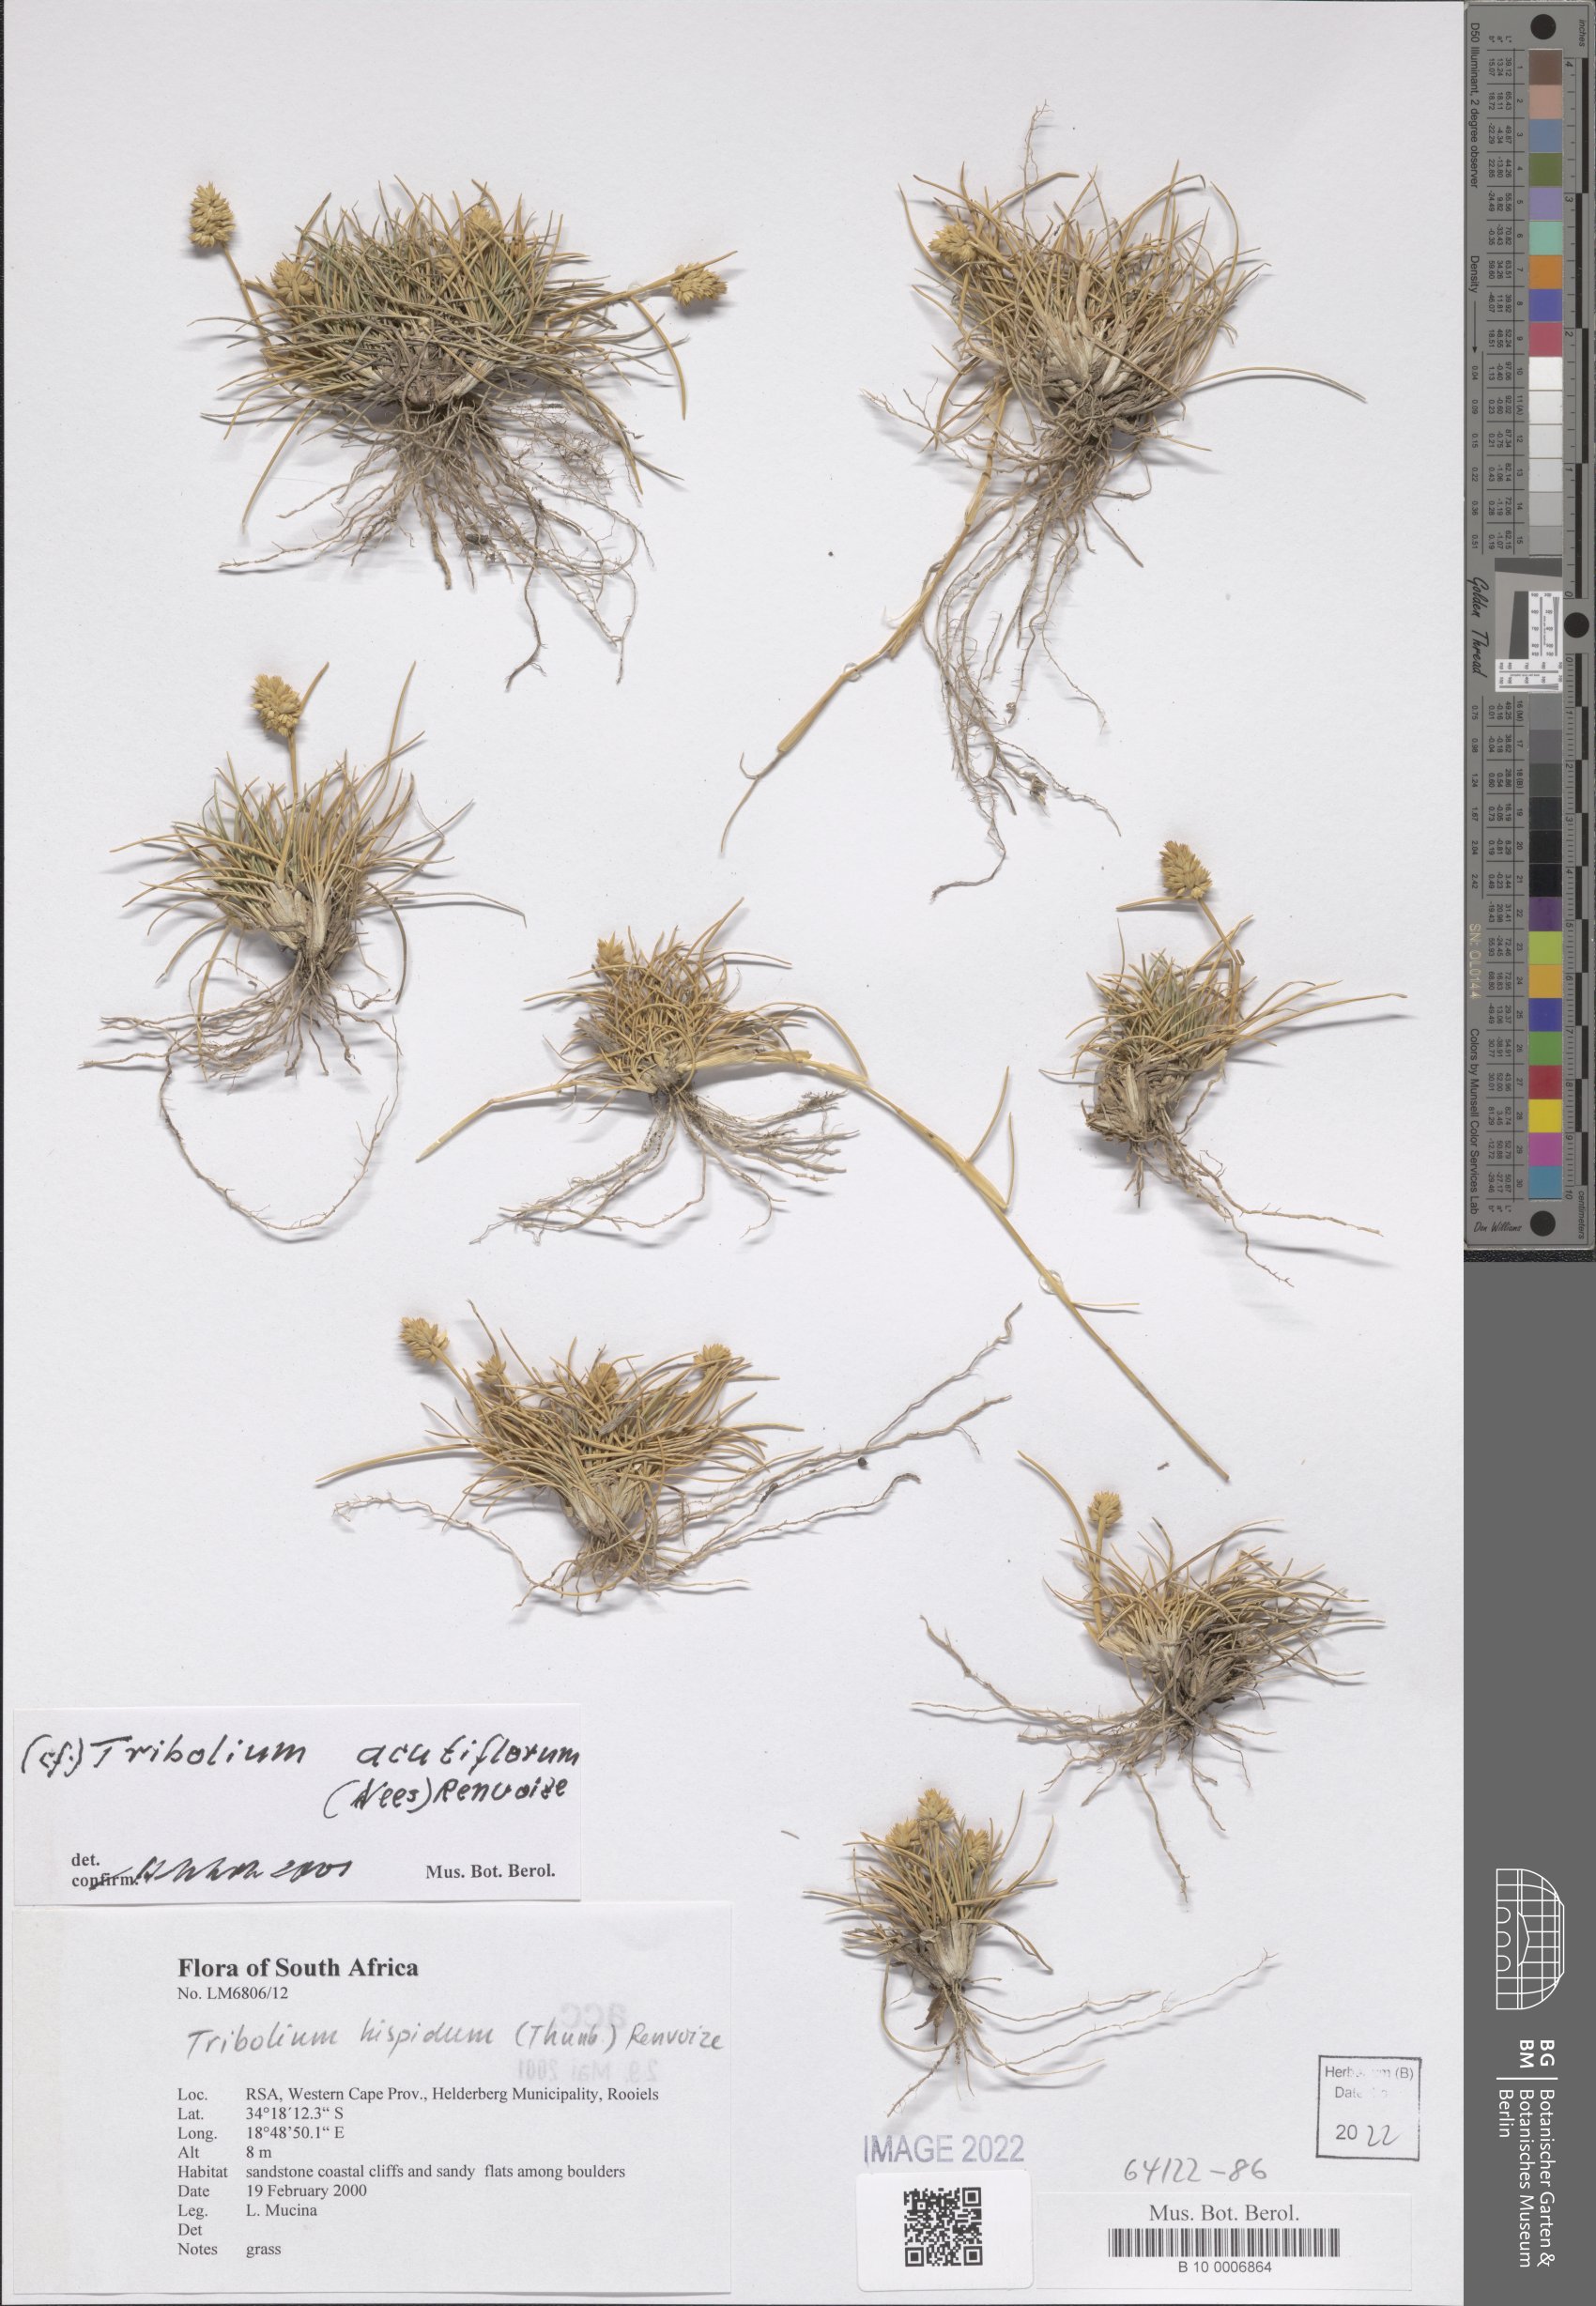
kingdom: Plantae
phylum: Tracheophyta
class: Liliopsida
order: Poales
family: Poaceae
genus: Tribolium
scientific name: Tribolium acutiflorum
